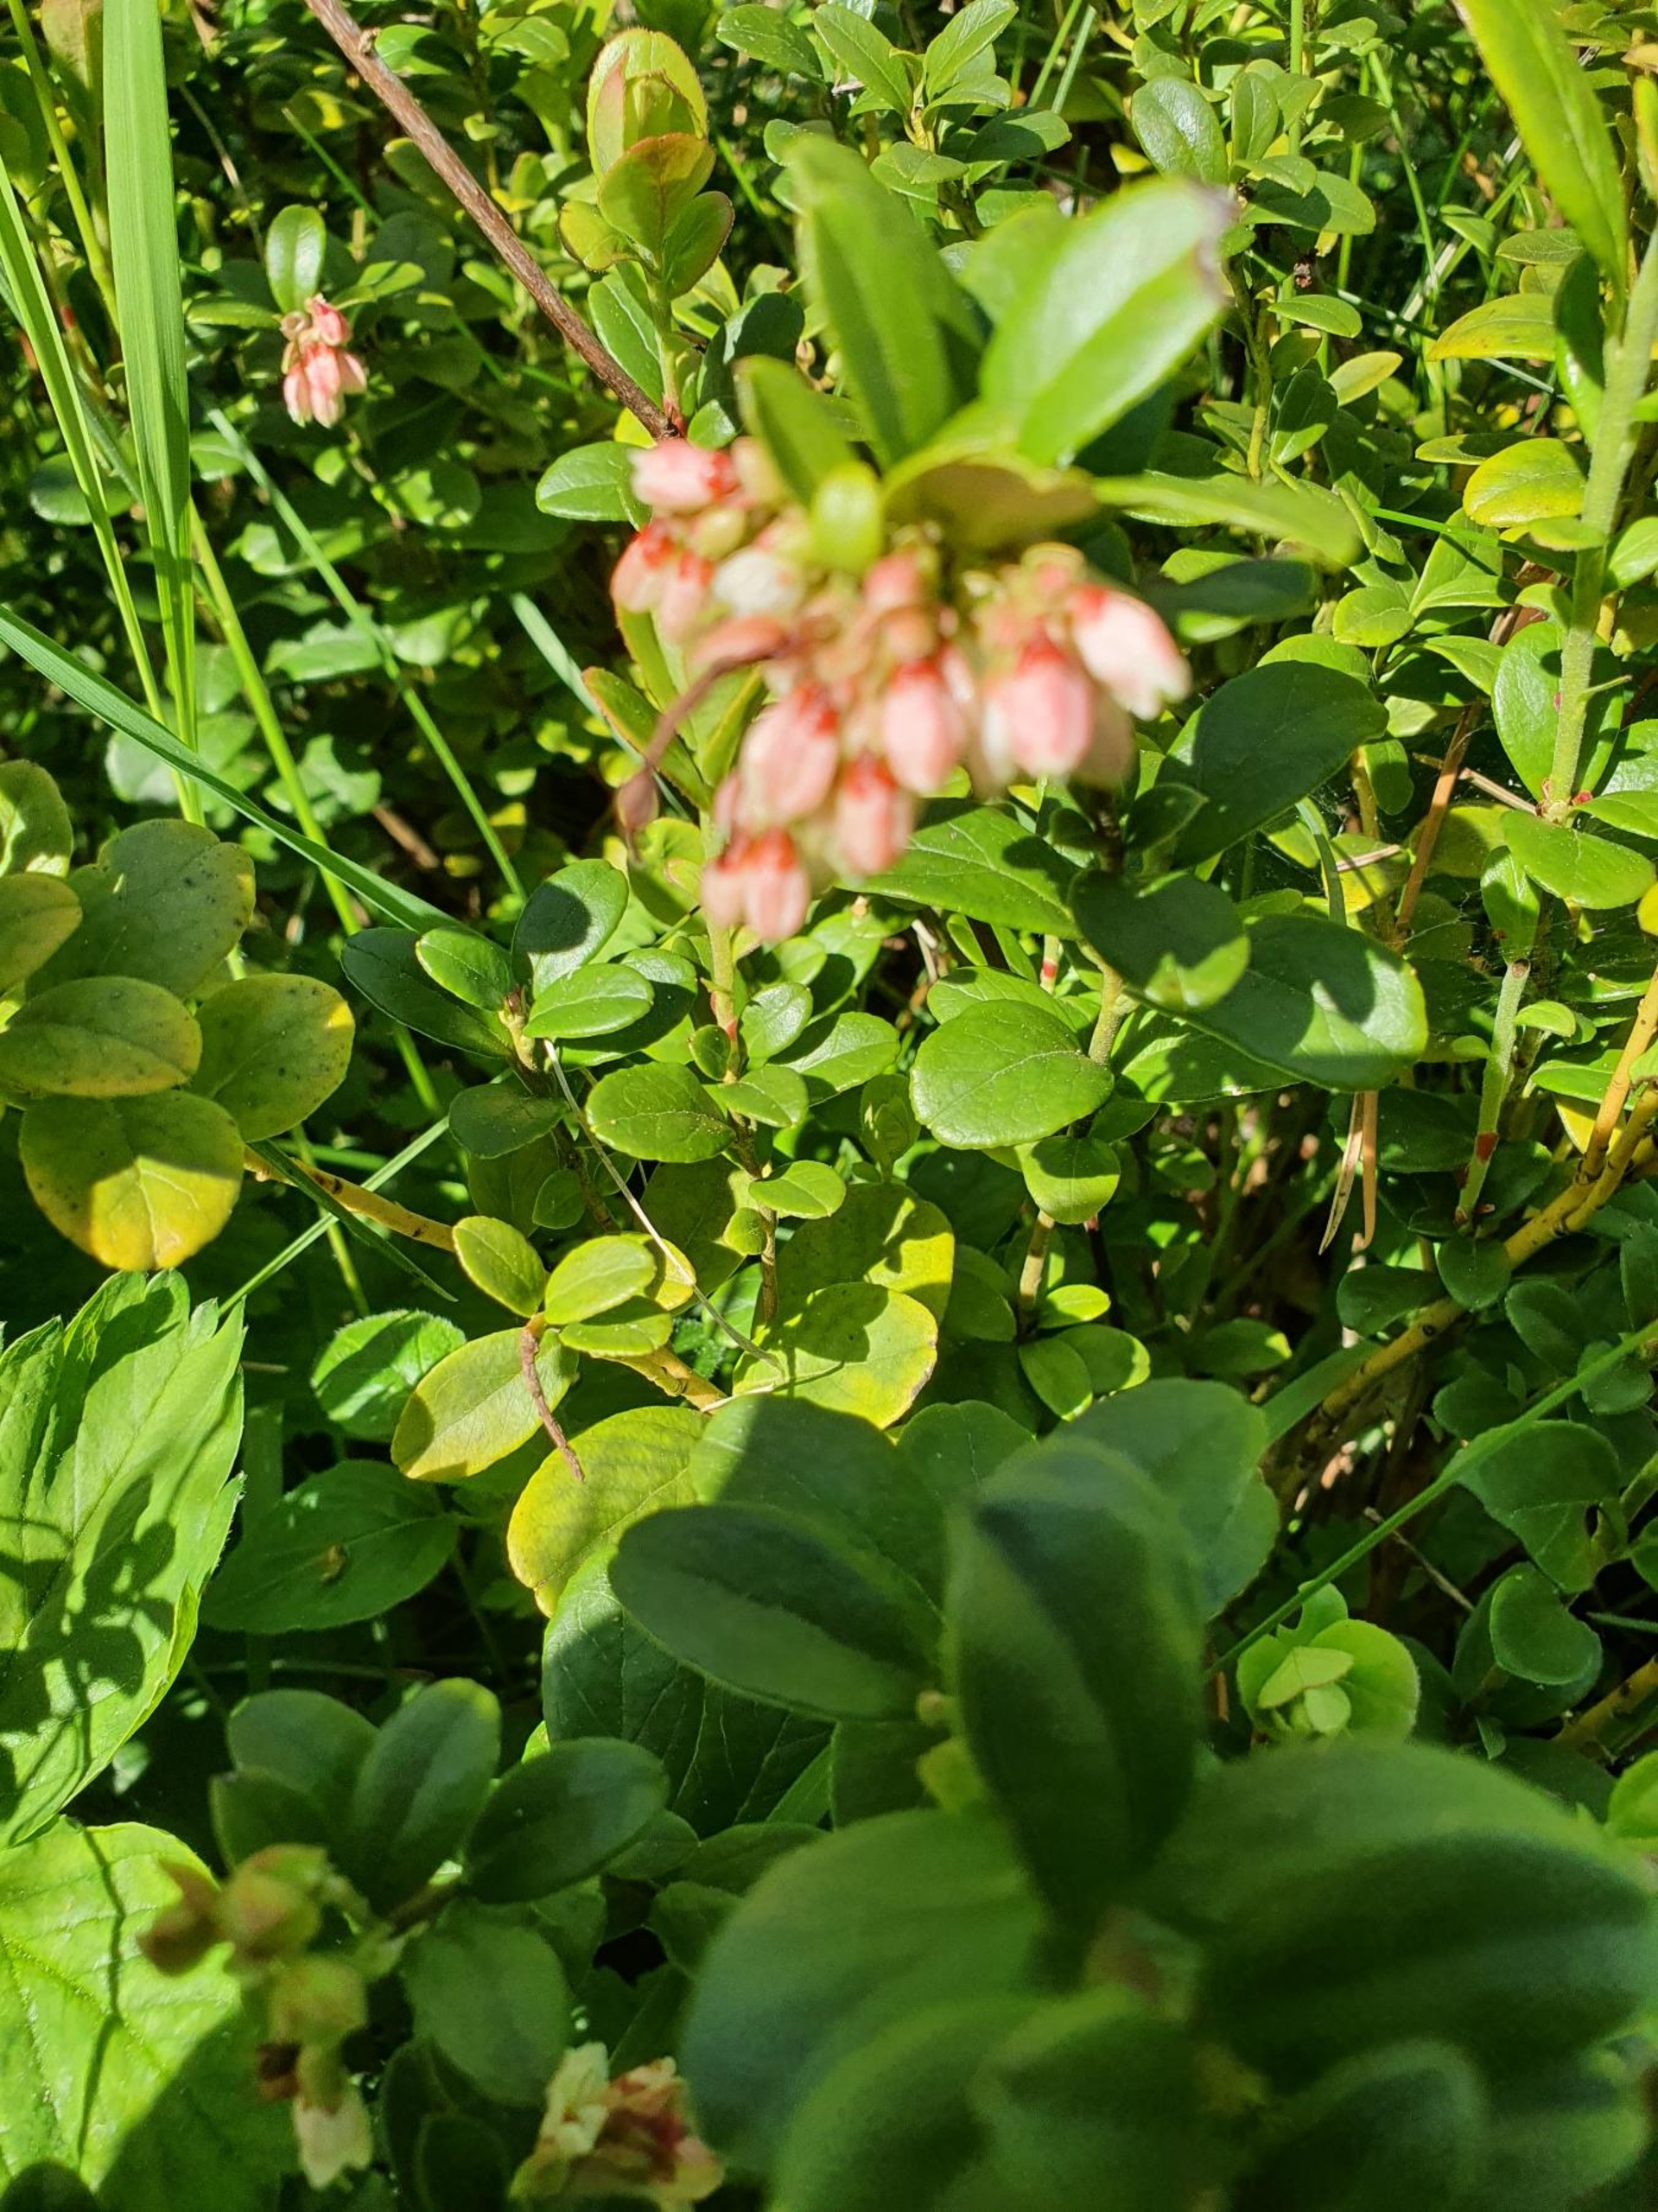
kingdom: Plantae
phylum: Tracheophyta
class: Magnoliopsida
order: Ericales
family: Ericaceae
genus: Vaccinium
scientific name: Vaccinium vitis-idaea
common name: Tyttebær
